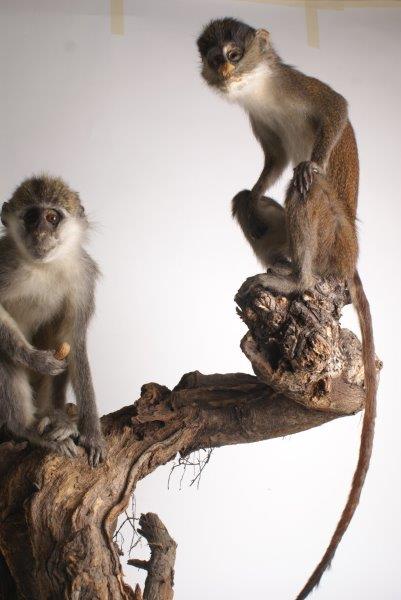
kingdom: Animalia
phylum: Chordata
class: Mammalia
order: Primates
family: Cercopithecidae
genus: Cercopithecus
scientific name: Cercopithecus erythrotis
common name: Red-eared Guenon
